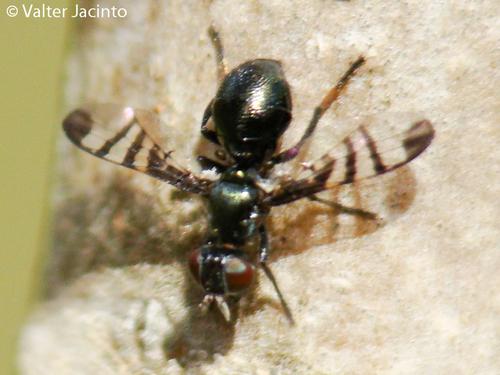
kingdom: Animalia
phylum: Arthropoda
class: Insecta
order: Diptera
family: Platystomatidae
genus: Rivellia
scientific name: Rivellia hispanica
